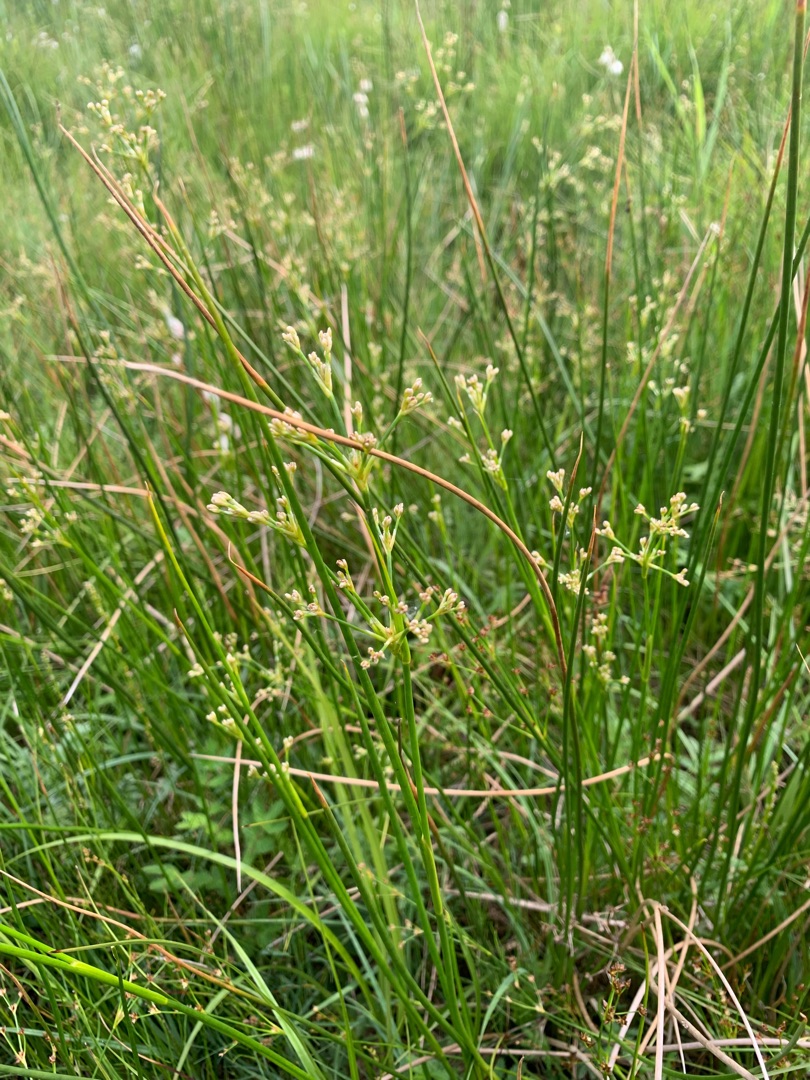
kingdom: Plantae
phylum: Tracheophyta
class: Liliopsida
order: Poales
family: Juncaceae
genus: Juncus
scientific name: Juncus subnodulosus
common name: Butblomstret siv
